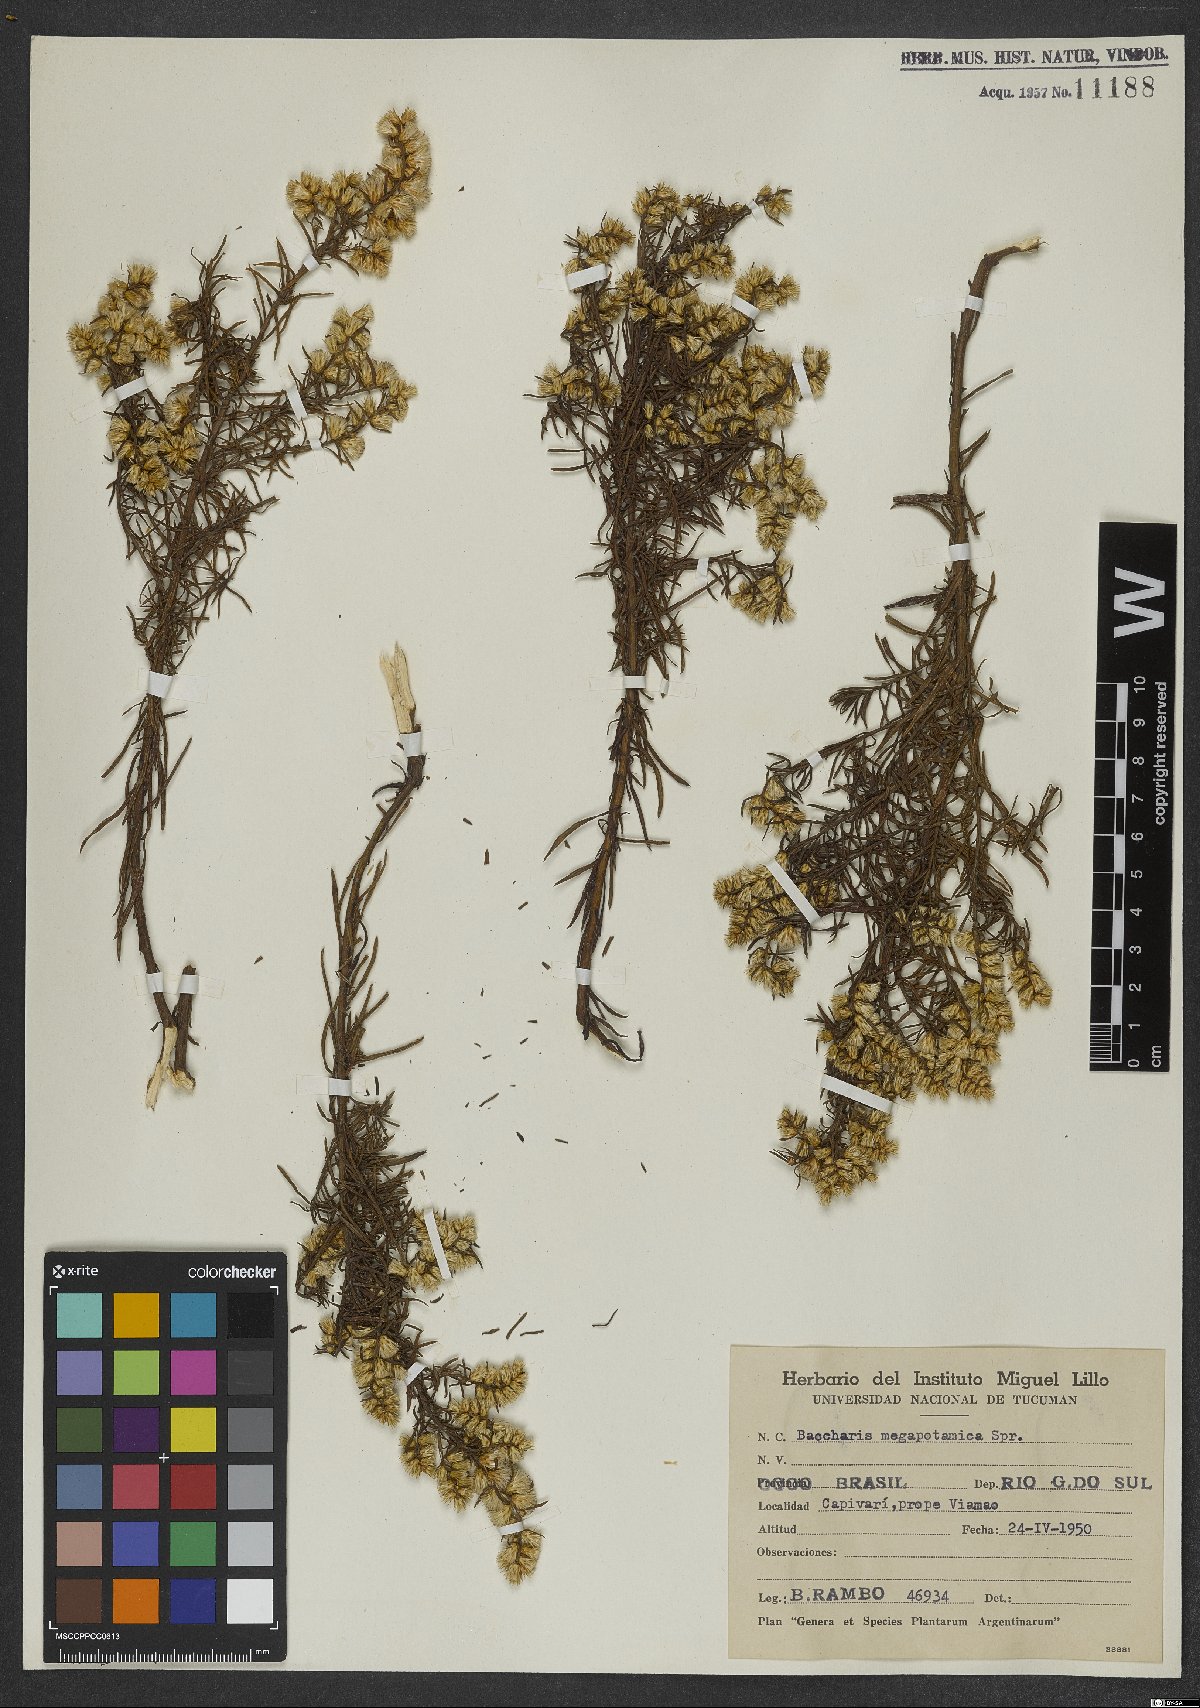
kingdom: Plantae
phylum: Tracheophyta
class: Magnoliopsida
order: Asterales
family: Asteraceae
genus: Baccharis
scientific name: Baccharis megapotamica
